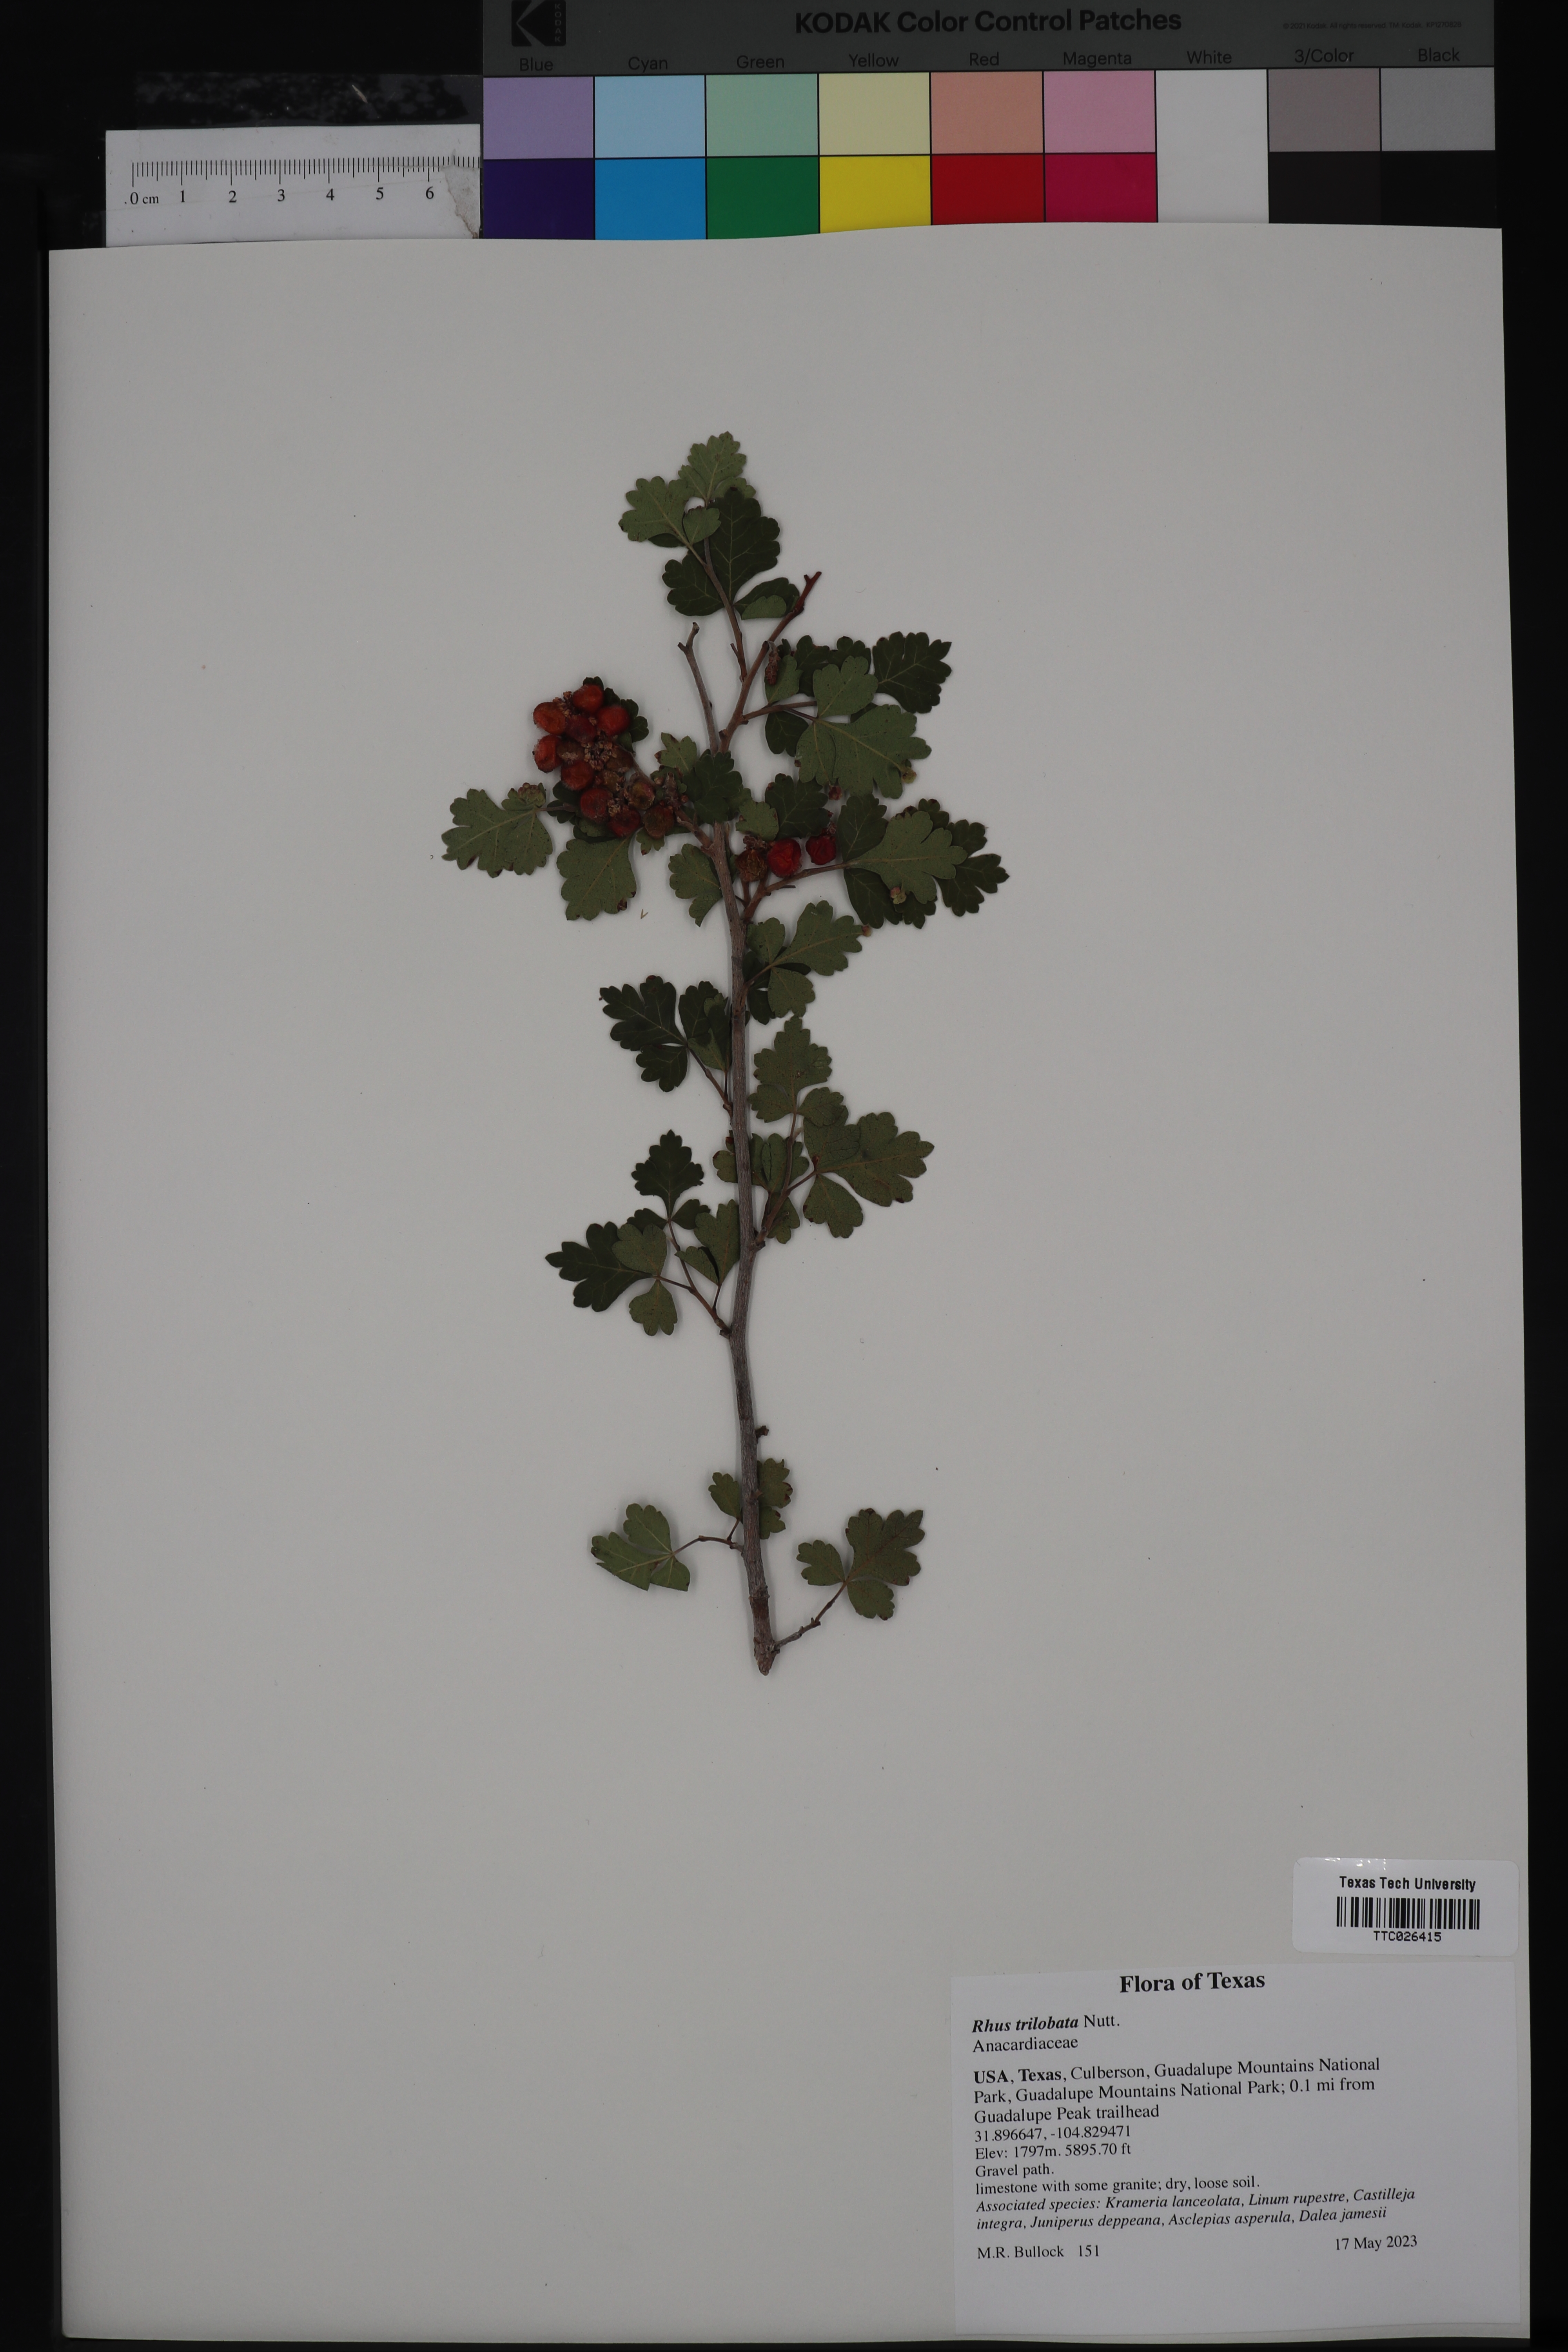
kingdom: Plantae
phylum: Tracheophyta
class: Magnoliopsida
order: Sapindales
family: Anacardiaceae
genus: Rhus
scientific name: Rhus aromatica
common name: Aromatic sumac
